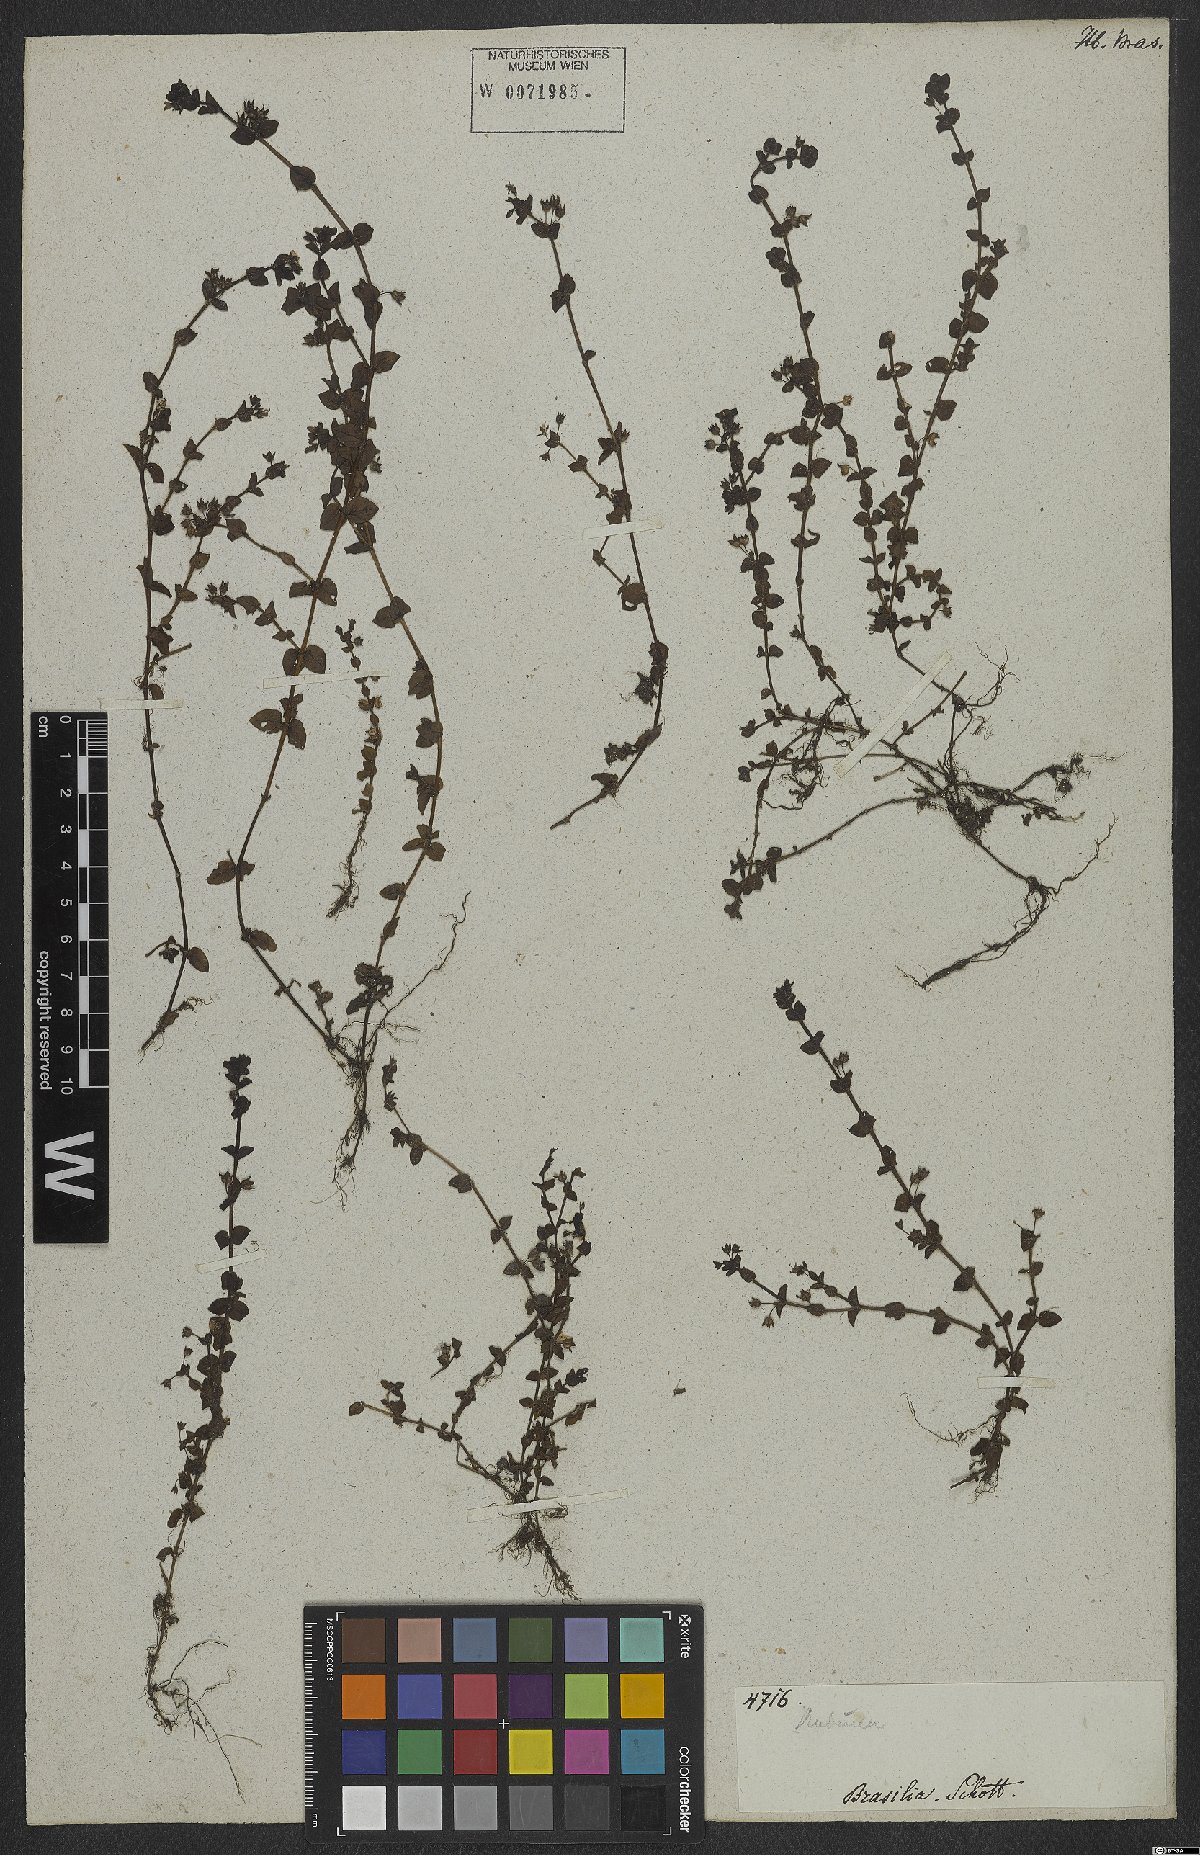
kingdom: Plantae
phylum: Tracheophyta
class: Magnoliopsida
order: Gentianales
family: Rubiaceae
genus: Arcytophyllum
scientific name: Arcytophyllum
